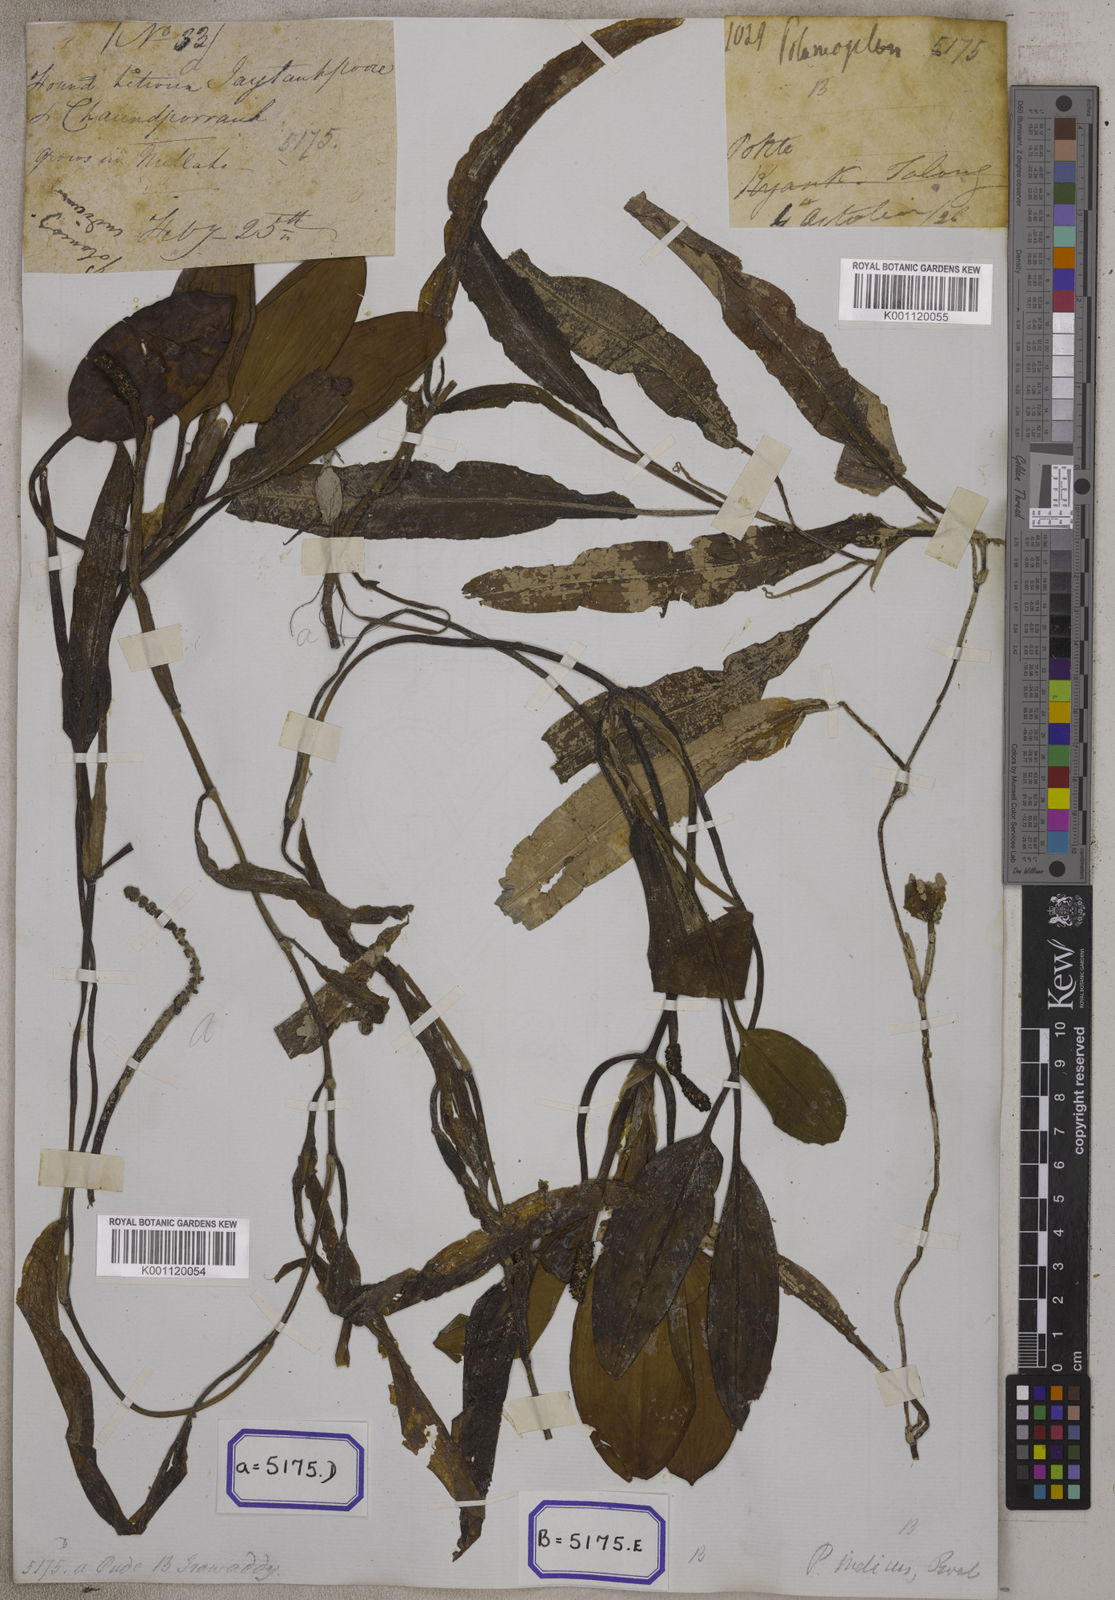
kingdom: Plantae
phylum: Tracheophyta
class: Liliopsida
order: Alismatales
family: Potamogetonaceae
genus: Potamogeton
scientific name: Potamogeton nodosus
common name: Loddon pondweed
